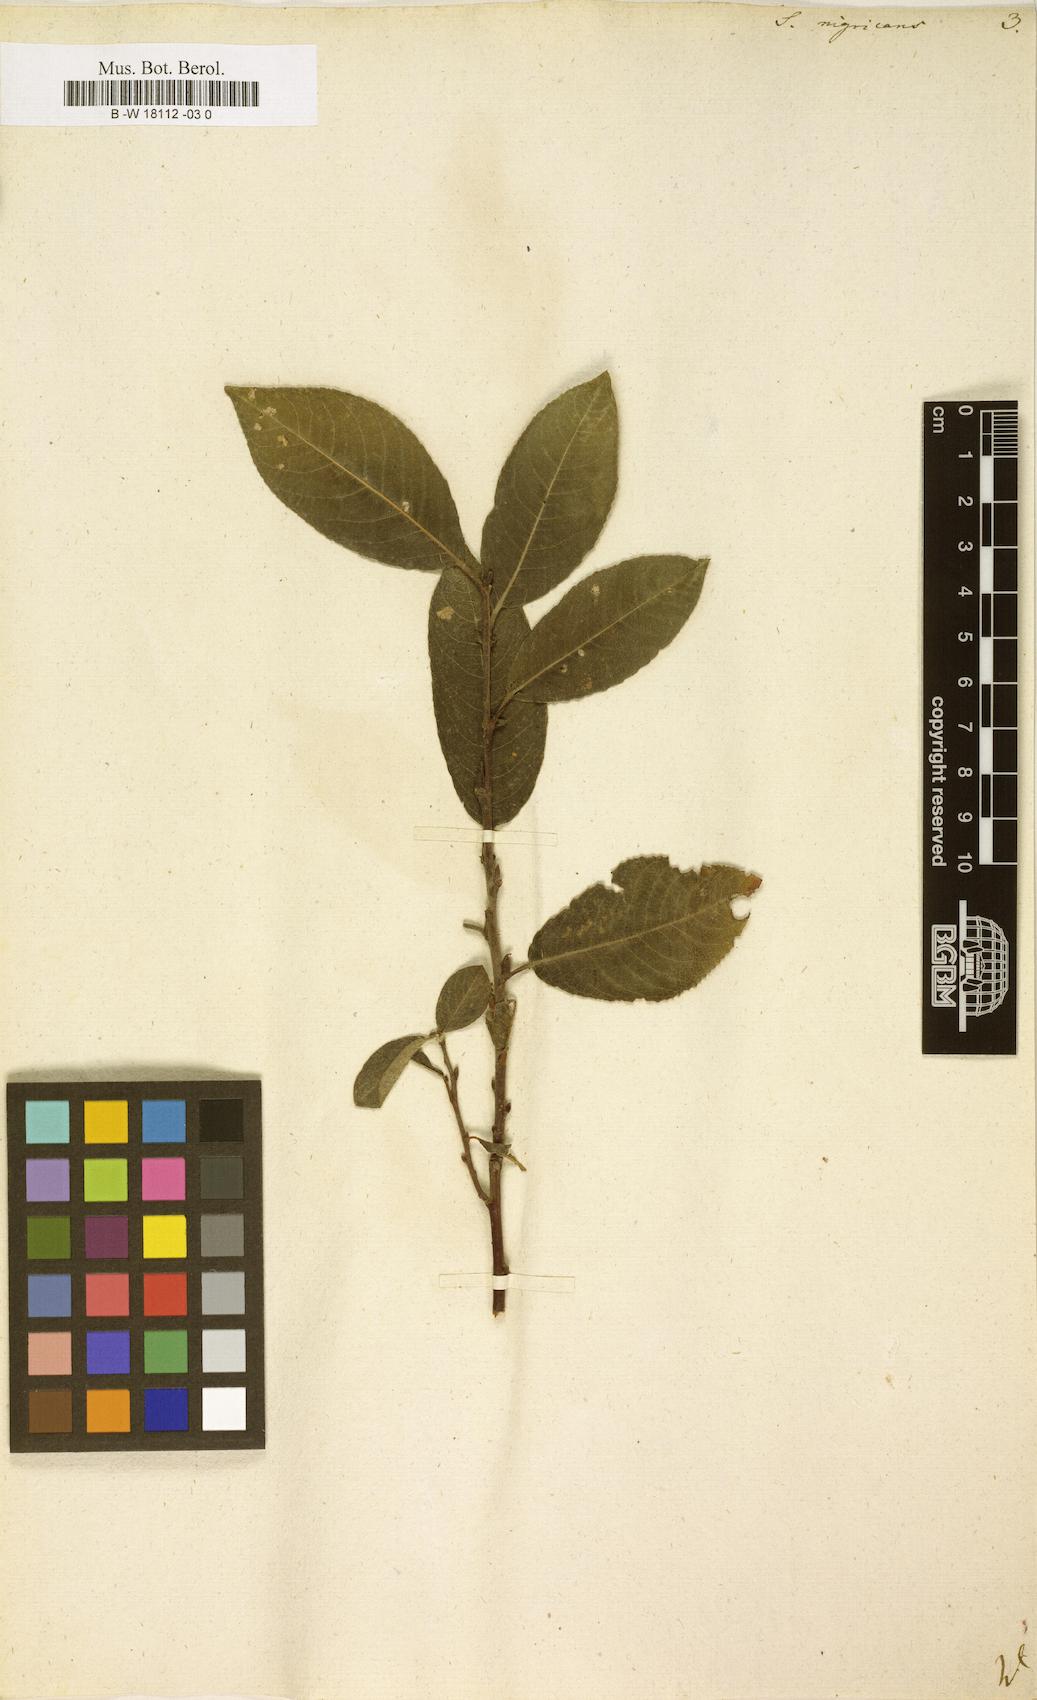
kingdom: Plantae
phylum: Tracheophyta
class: Magnoliopsida
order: Malpighiales
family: Salicaceae
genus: Salix
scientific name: Salix myrsinifolia
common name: Dark-leaved willow
